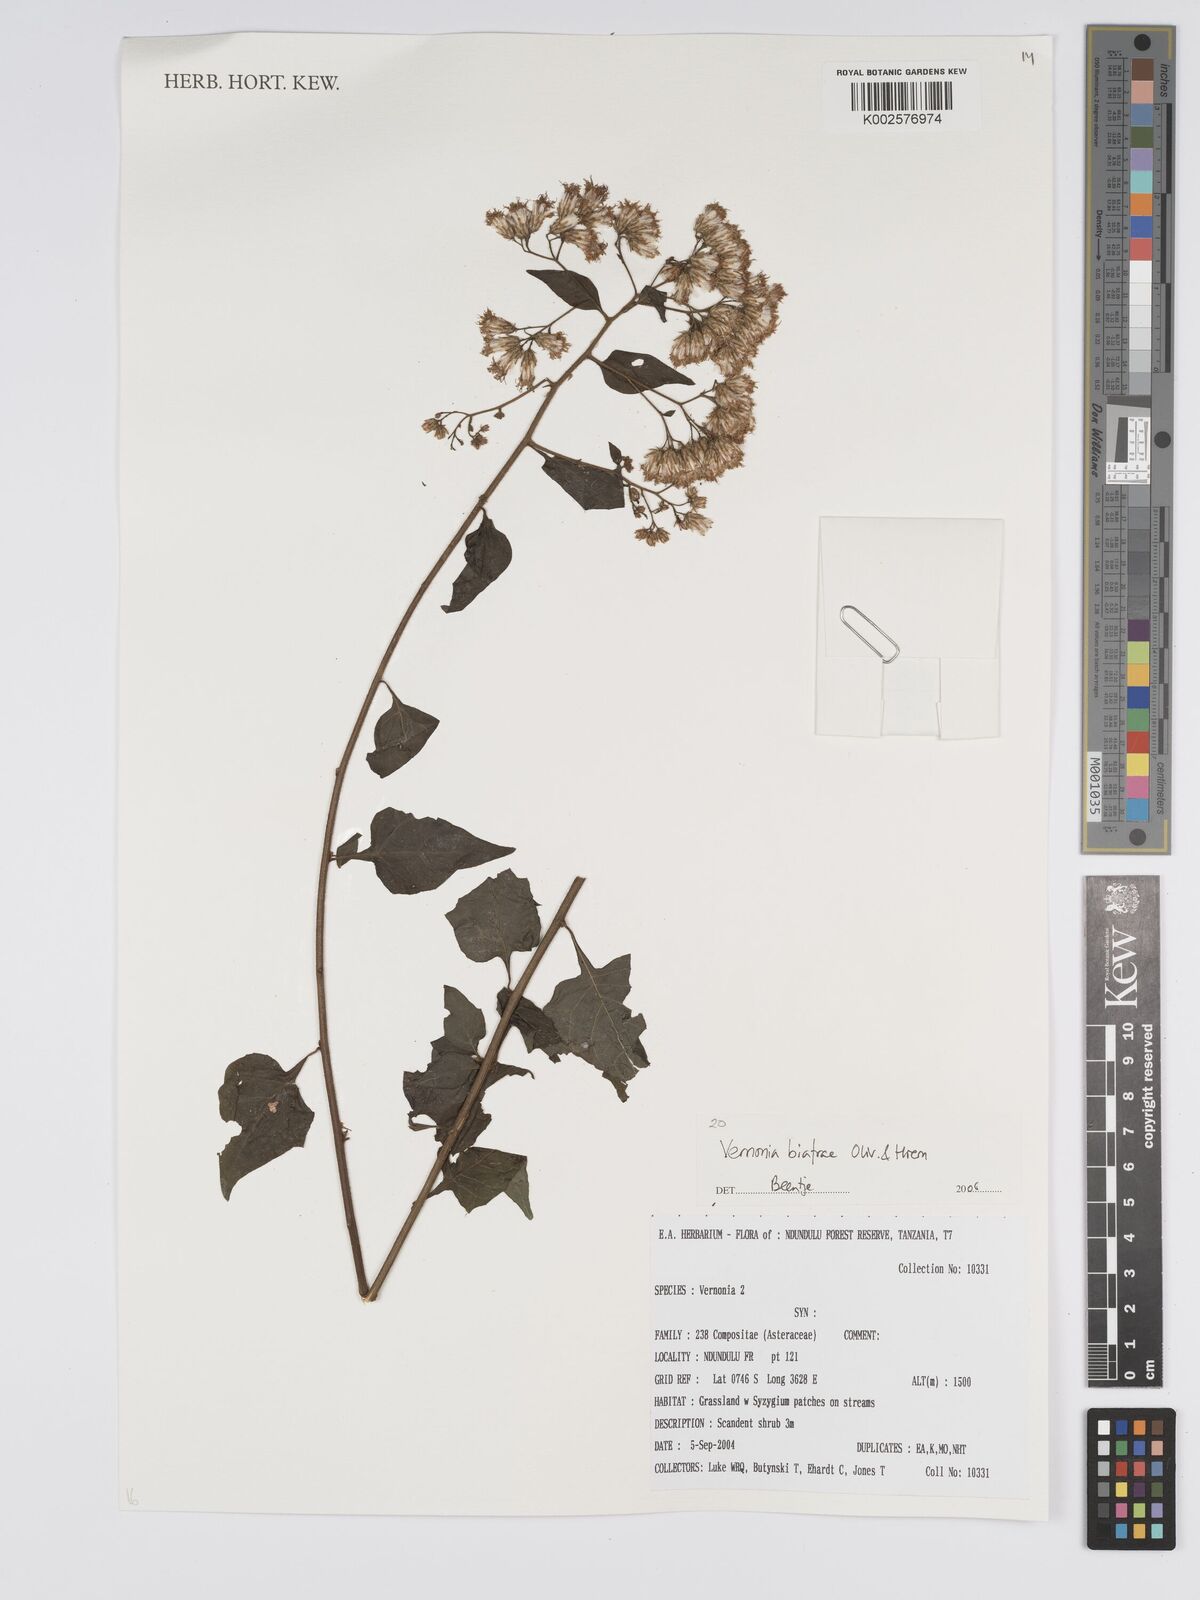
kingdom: Plantae
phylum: Tracheophyta
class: Magnoliopsida
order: Asterales
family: Asteraceae
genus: Distephanus
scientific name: Distephanus biafrae
